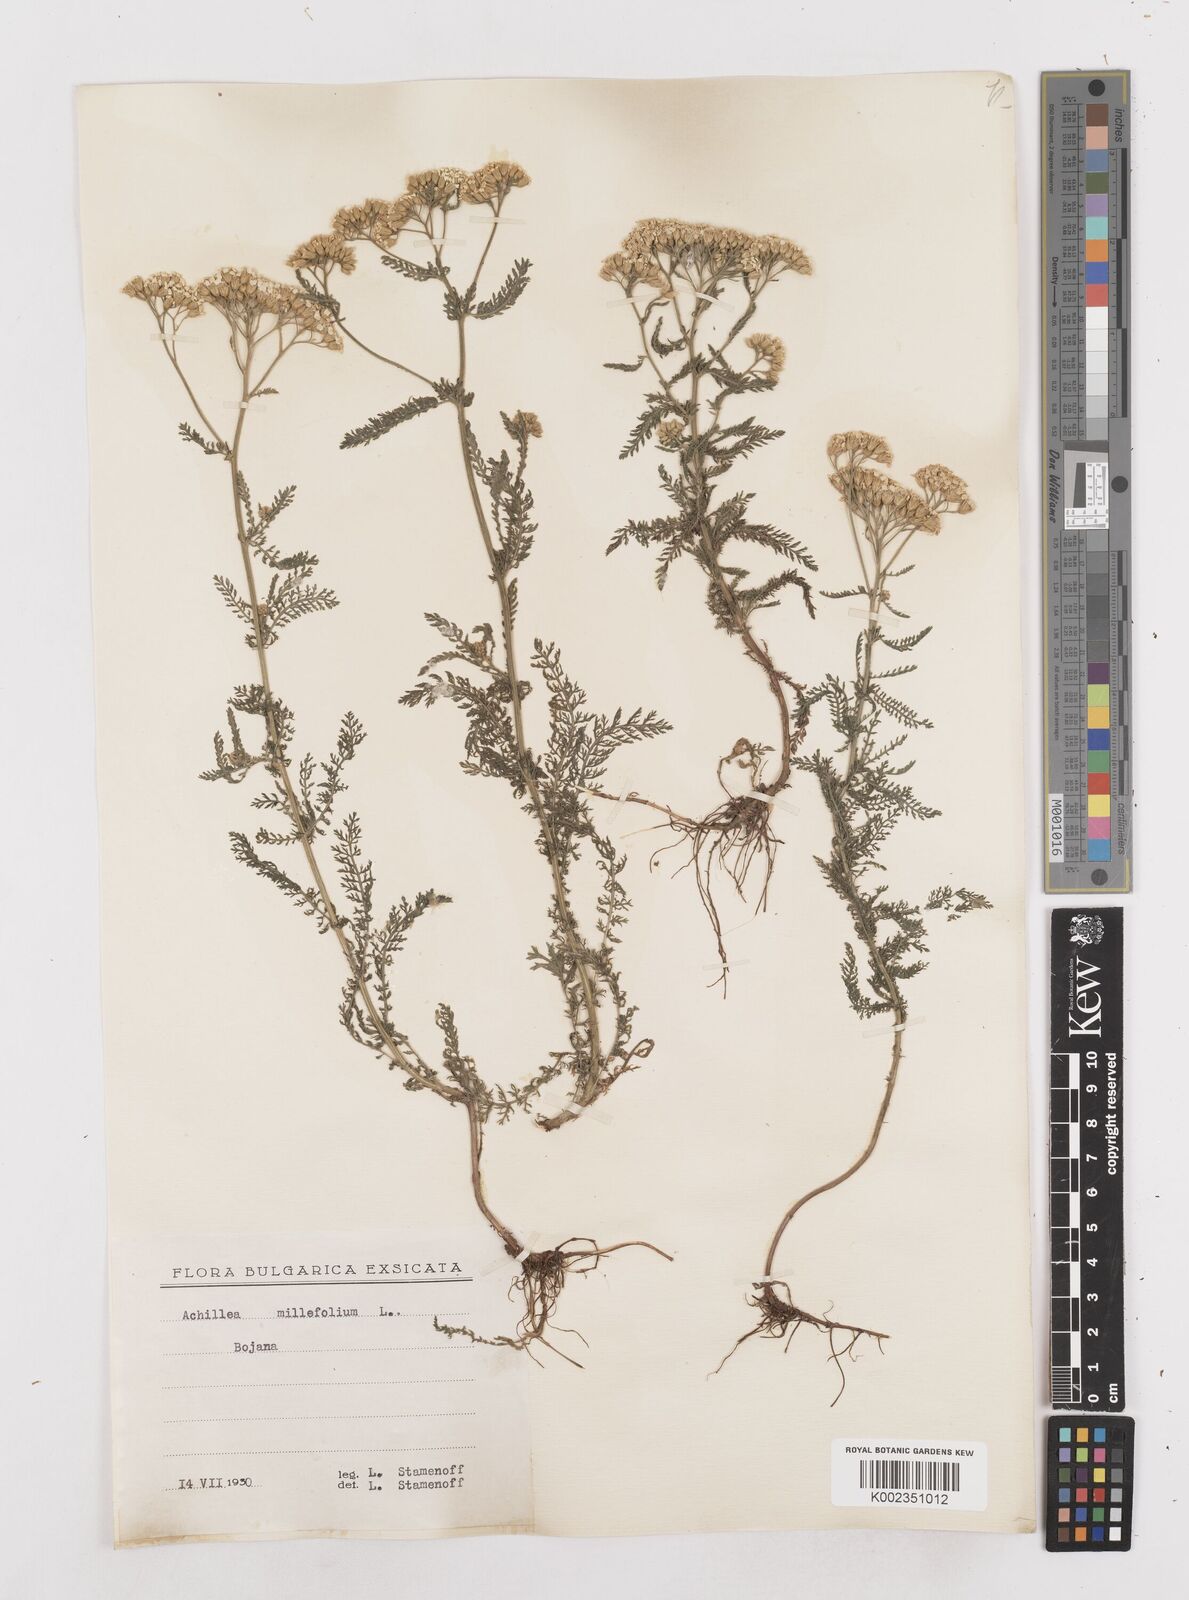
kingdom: Plantae
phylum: Tracheophyta
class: Magnoliopsida
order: Asterales
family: Asteraceae
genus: Achillea
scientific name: Achillea millefolium
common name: Yarrow
